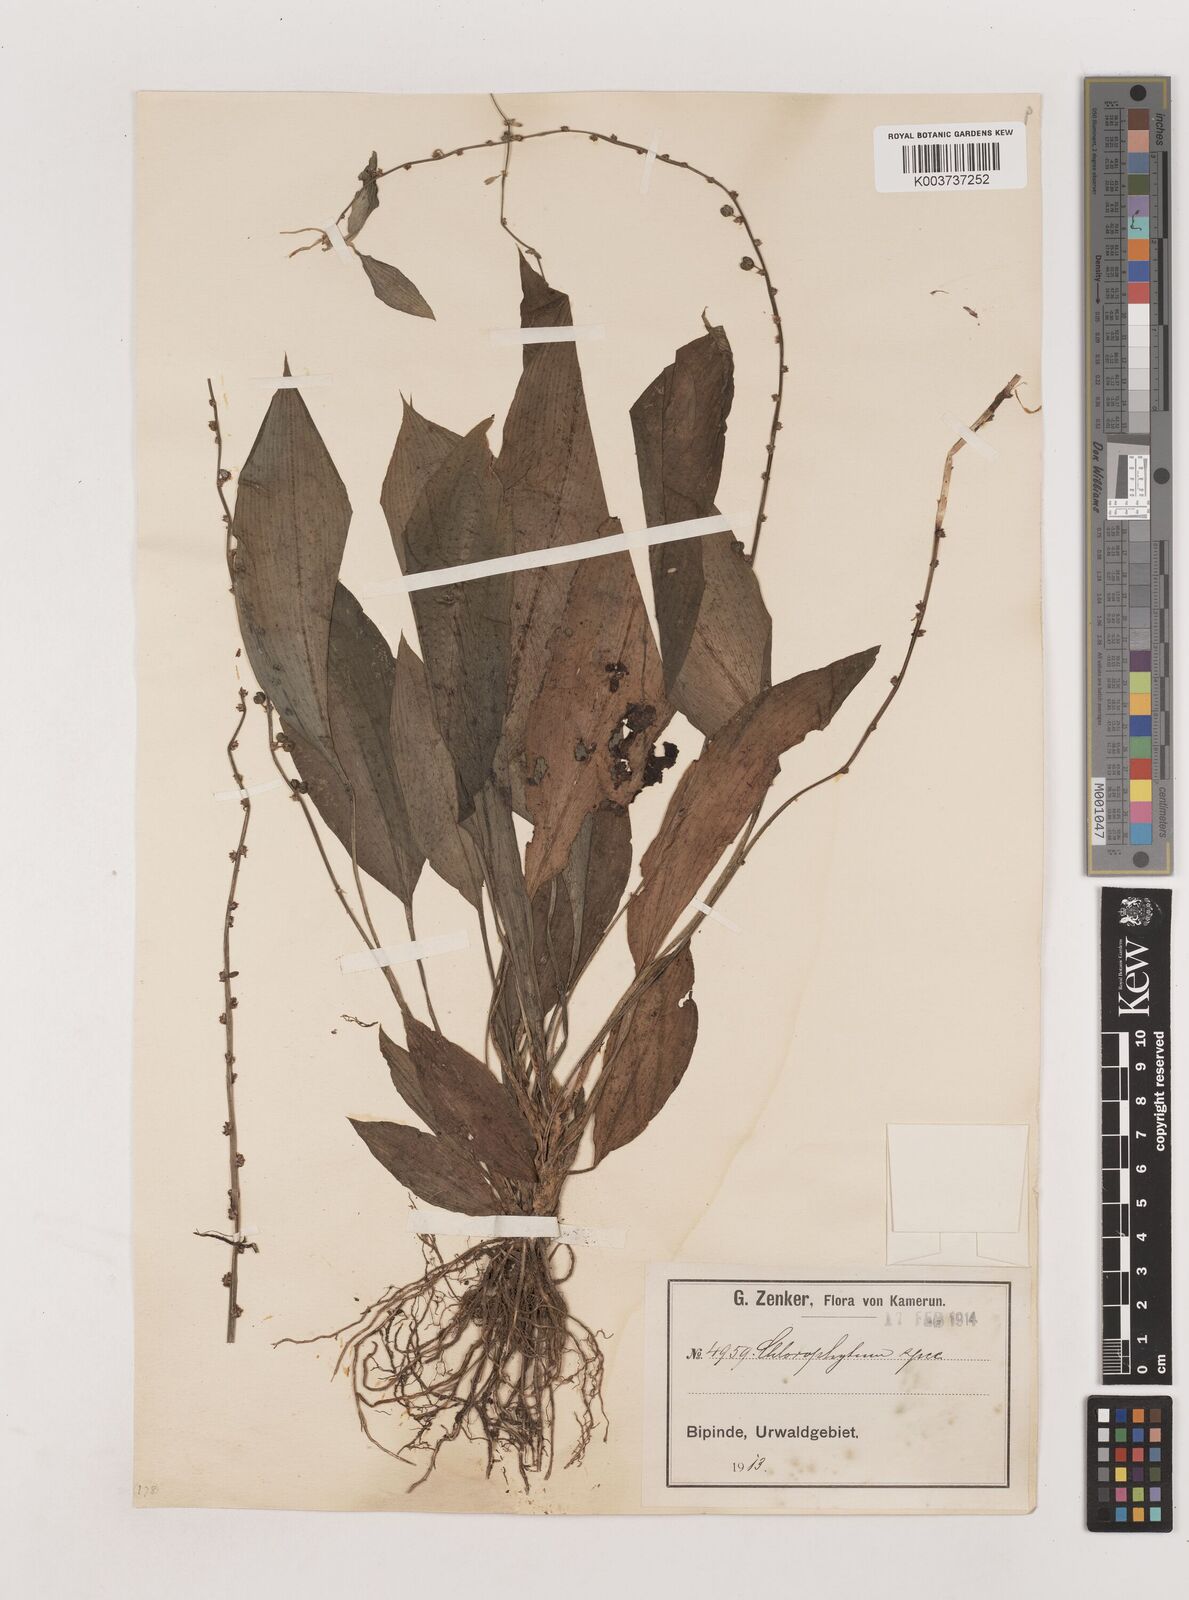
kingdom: Plantae
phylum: Tracheophyta
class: Liliopsida
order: Asparagales
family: Asparagaceae
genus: Chlorophytum
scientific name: Chlorophytum sparsiflorum
